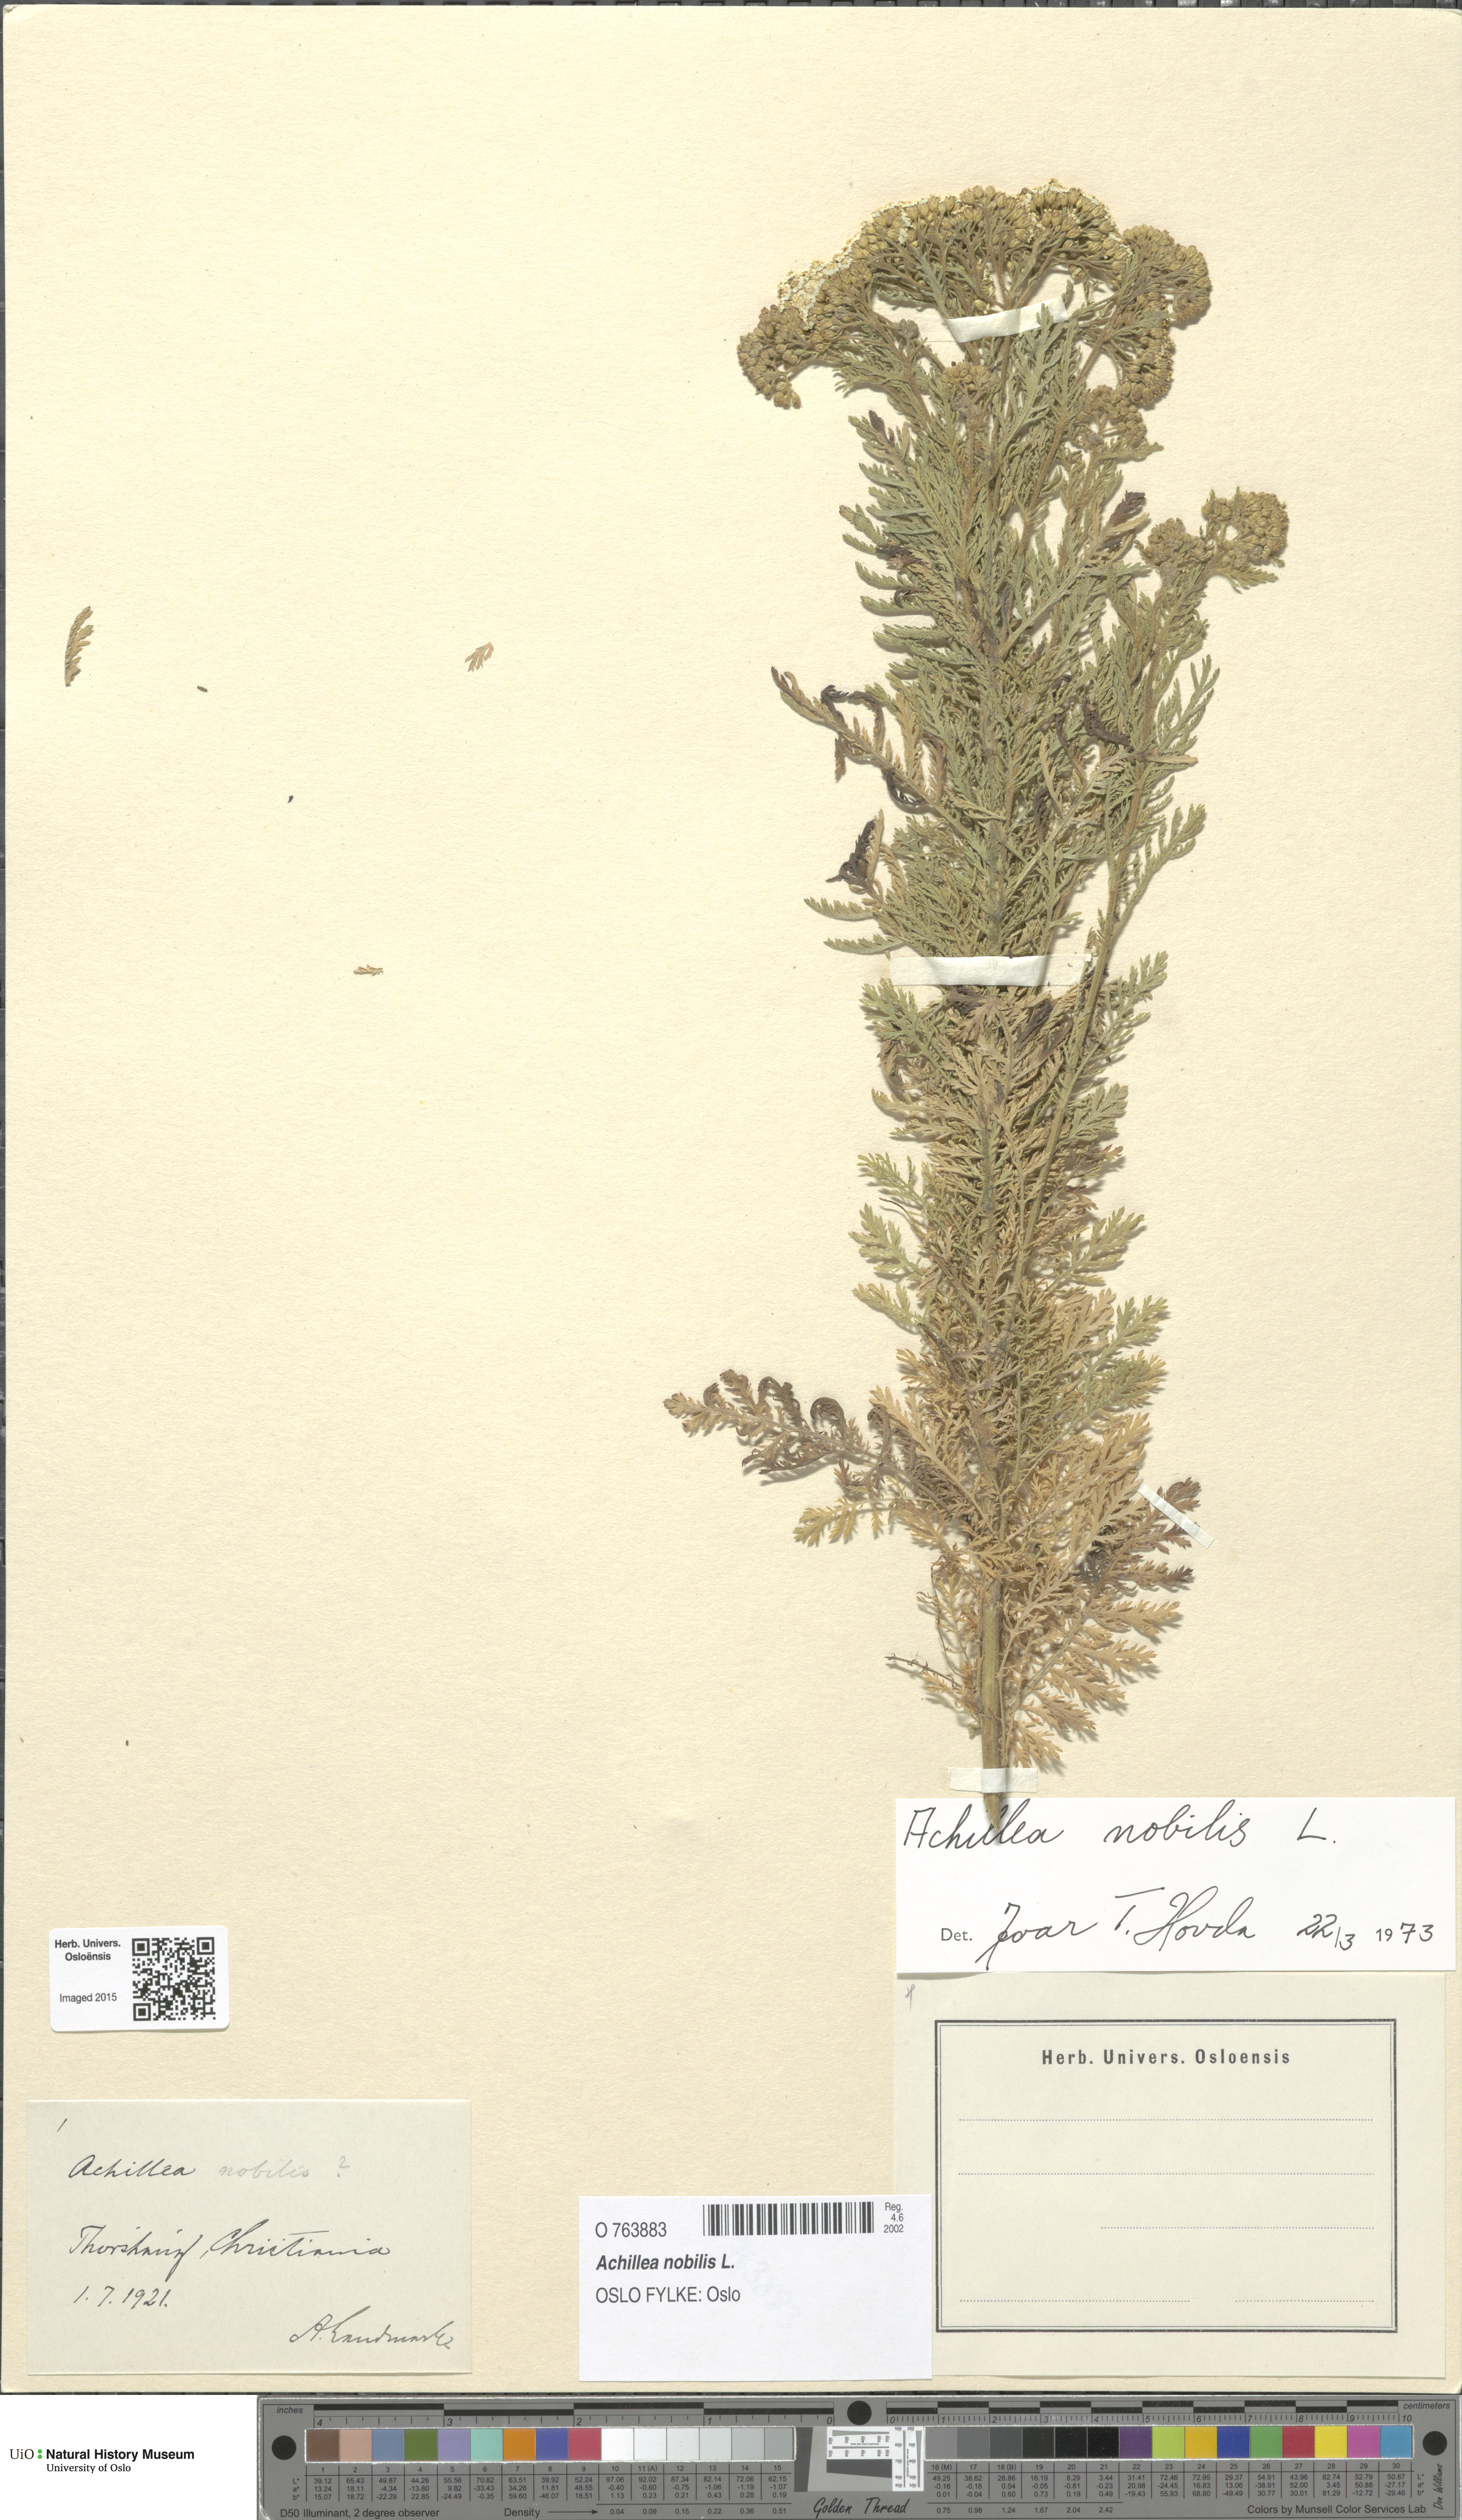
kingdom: Plantae
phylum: Tracheophyta
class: Magnoliopsida
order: Asterales
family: Asteraceae
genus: Achillea
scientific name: Achillea nobilis
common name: Noble yarrow
